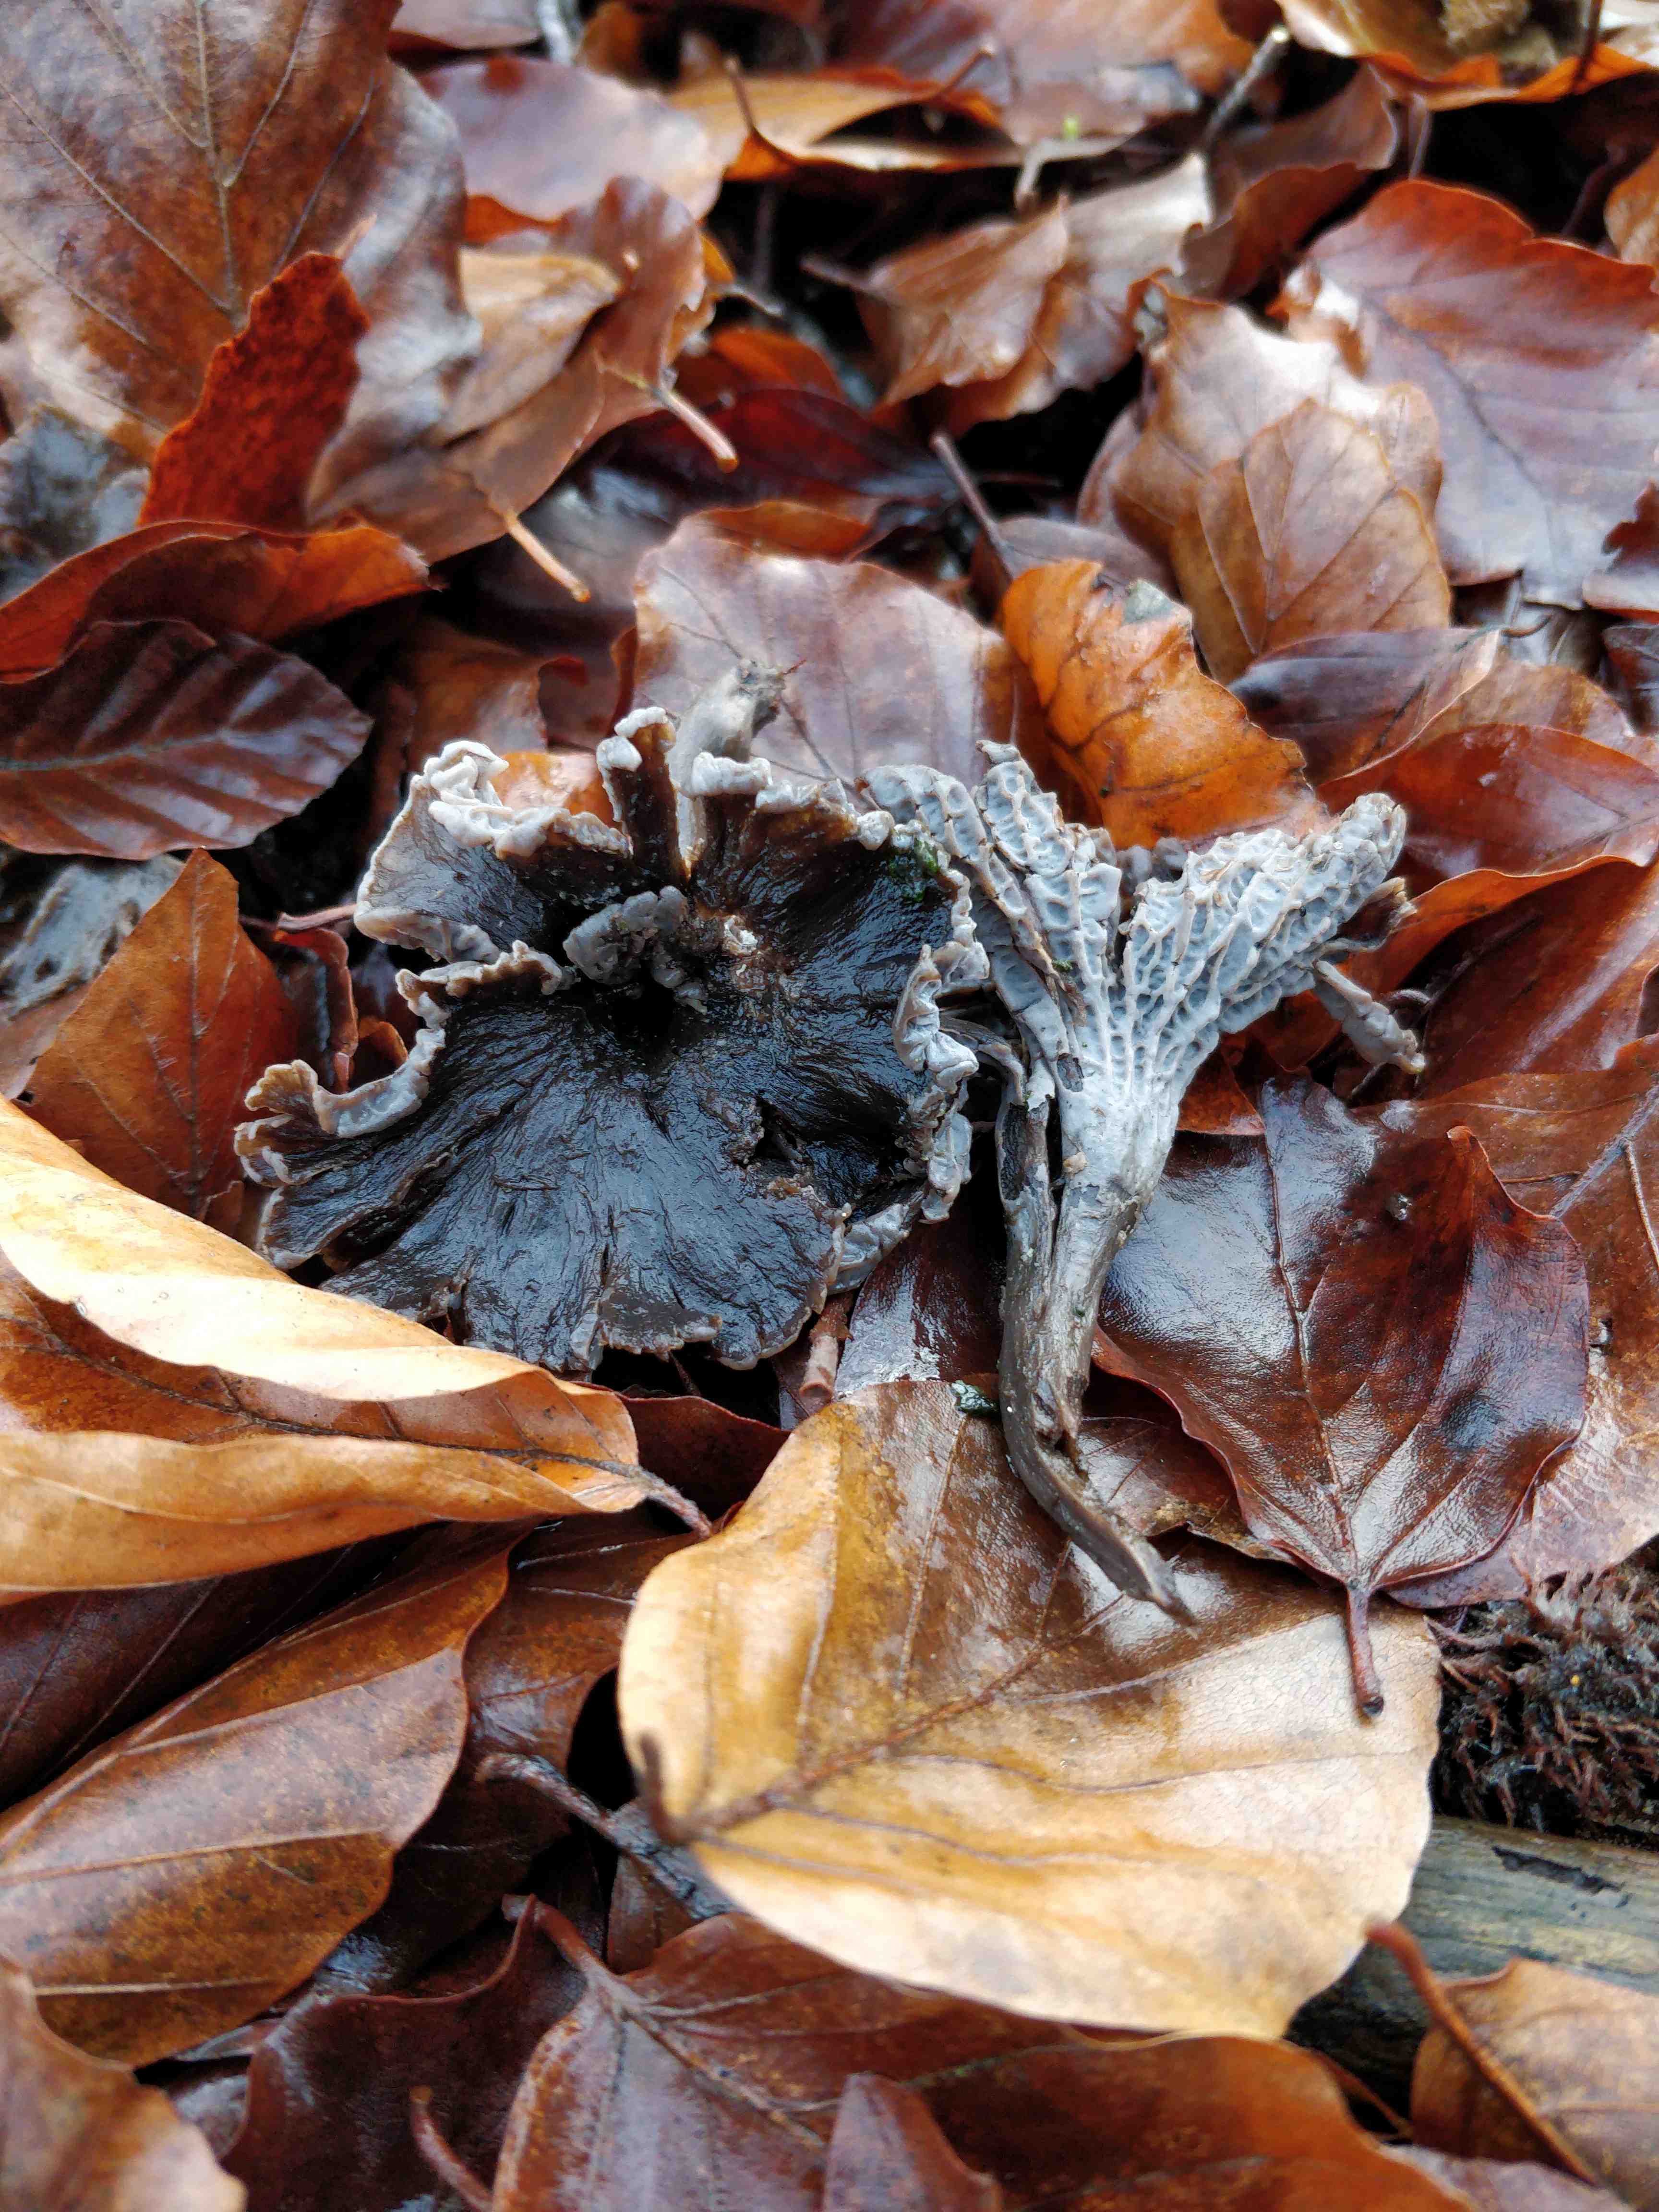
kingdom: Fungi
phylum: Basidiomycota
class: Agaricomycetes
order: Cantharellales
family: Hydnaceae
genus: Cantharellus
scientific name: Cantharellus cinereus
